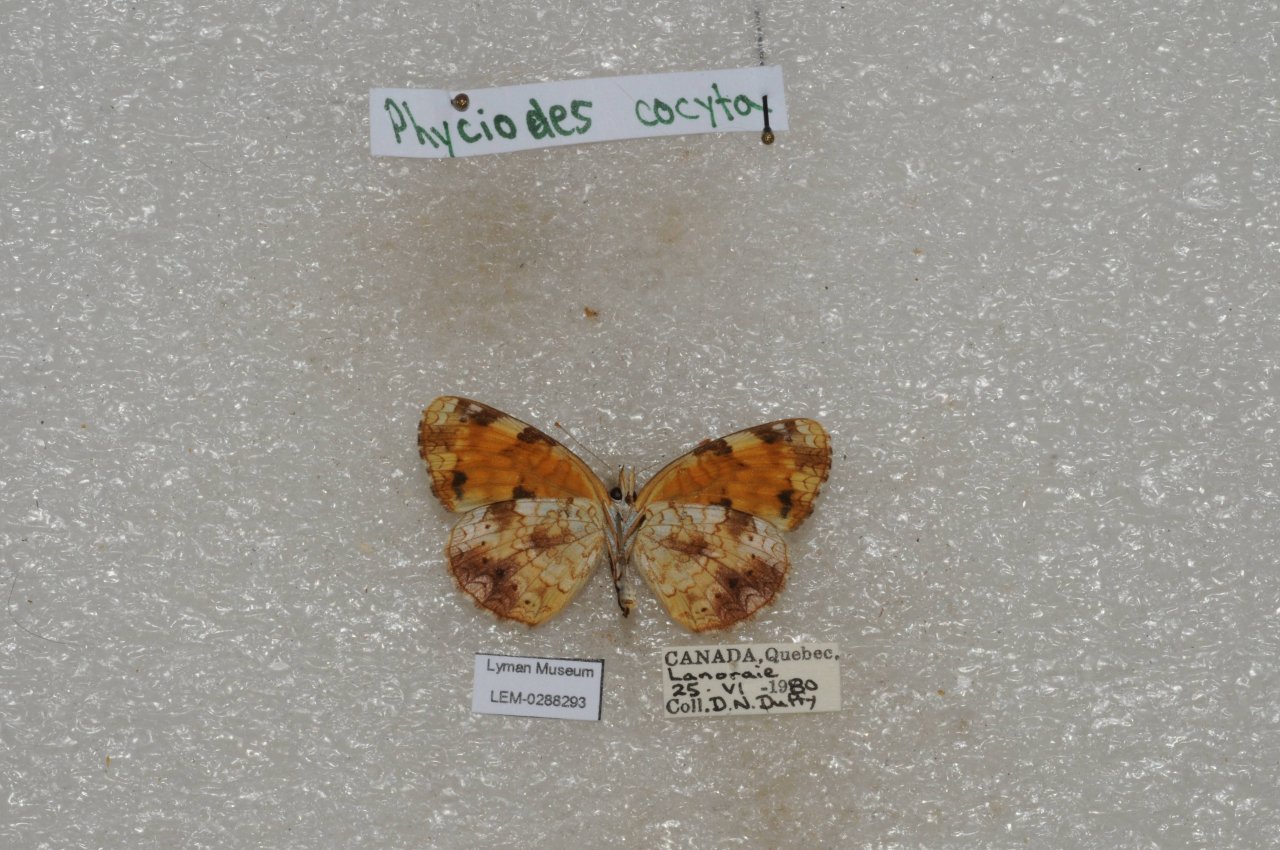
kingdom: Animalia
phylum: Arthropoda
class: Insecta
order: Lepidoptera
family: Nymphalidae
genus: Phyciodes
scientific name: Phyciodes tharos
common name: Northern Crescent
